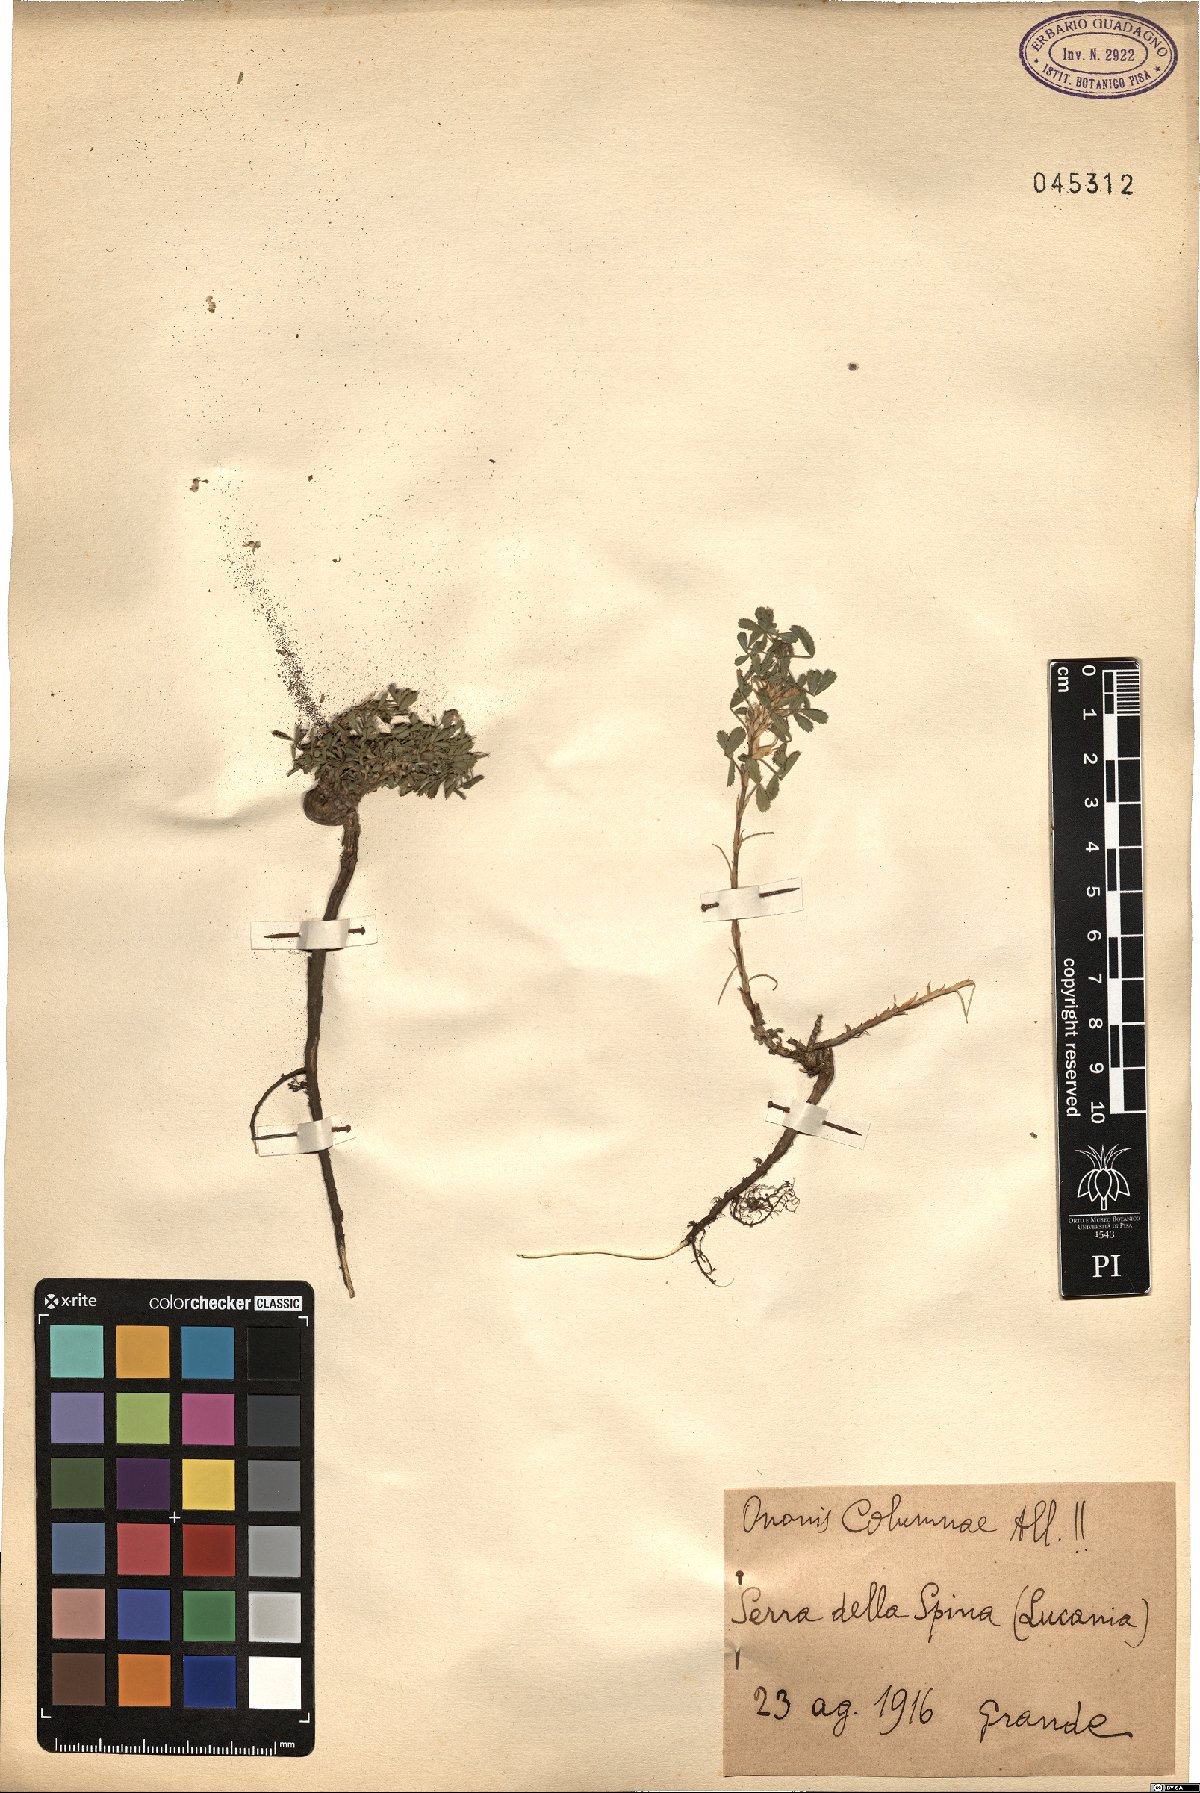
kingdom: Plantae
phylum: Tracheophyta
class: Magnoliopsida
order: Fabales
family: Fabaceae
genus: Ononis
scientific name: Ononis pusilla
